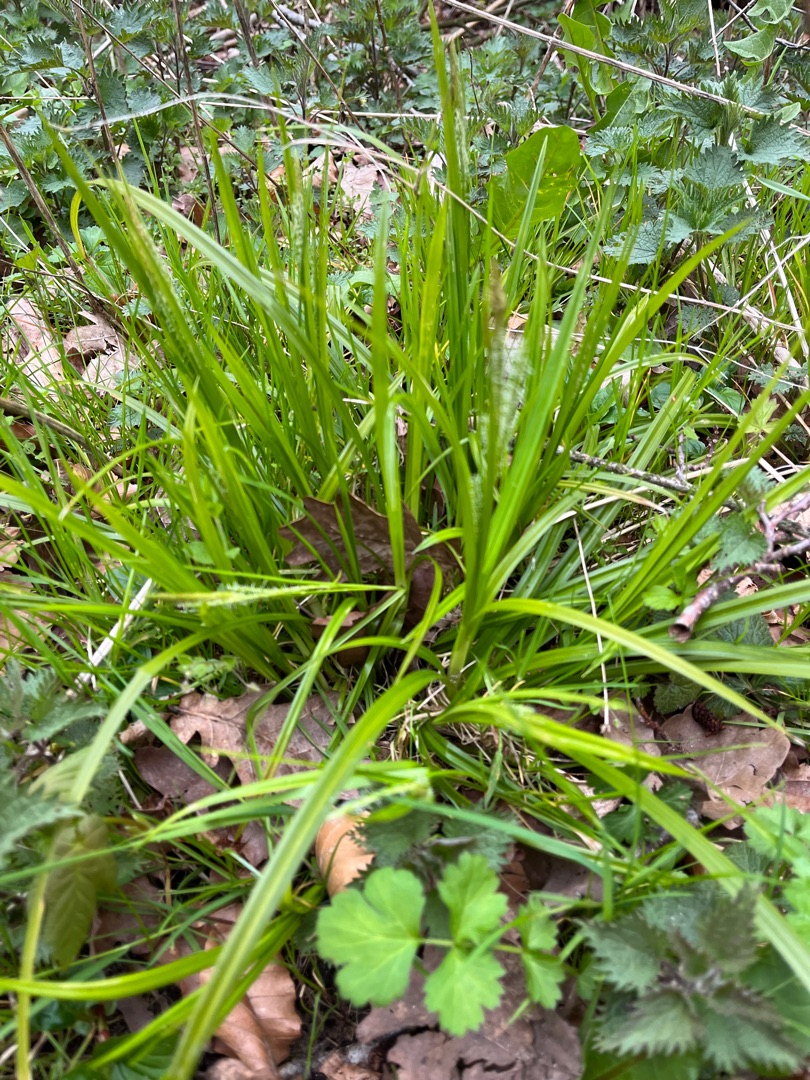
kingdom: Plantae
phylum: Tracheophyta
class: Liliopsida
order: Poales
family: Cyperaceae
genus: Carex
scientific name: Carex sylvatica
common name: Skov-star
